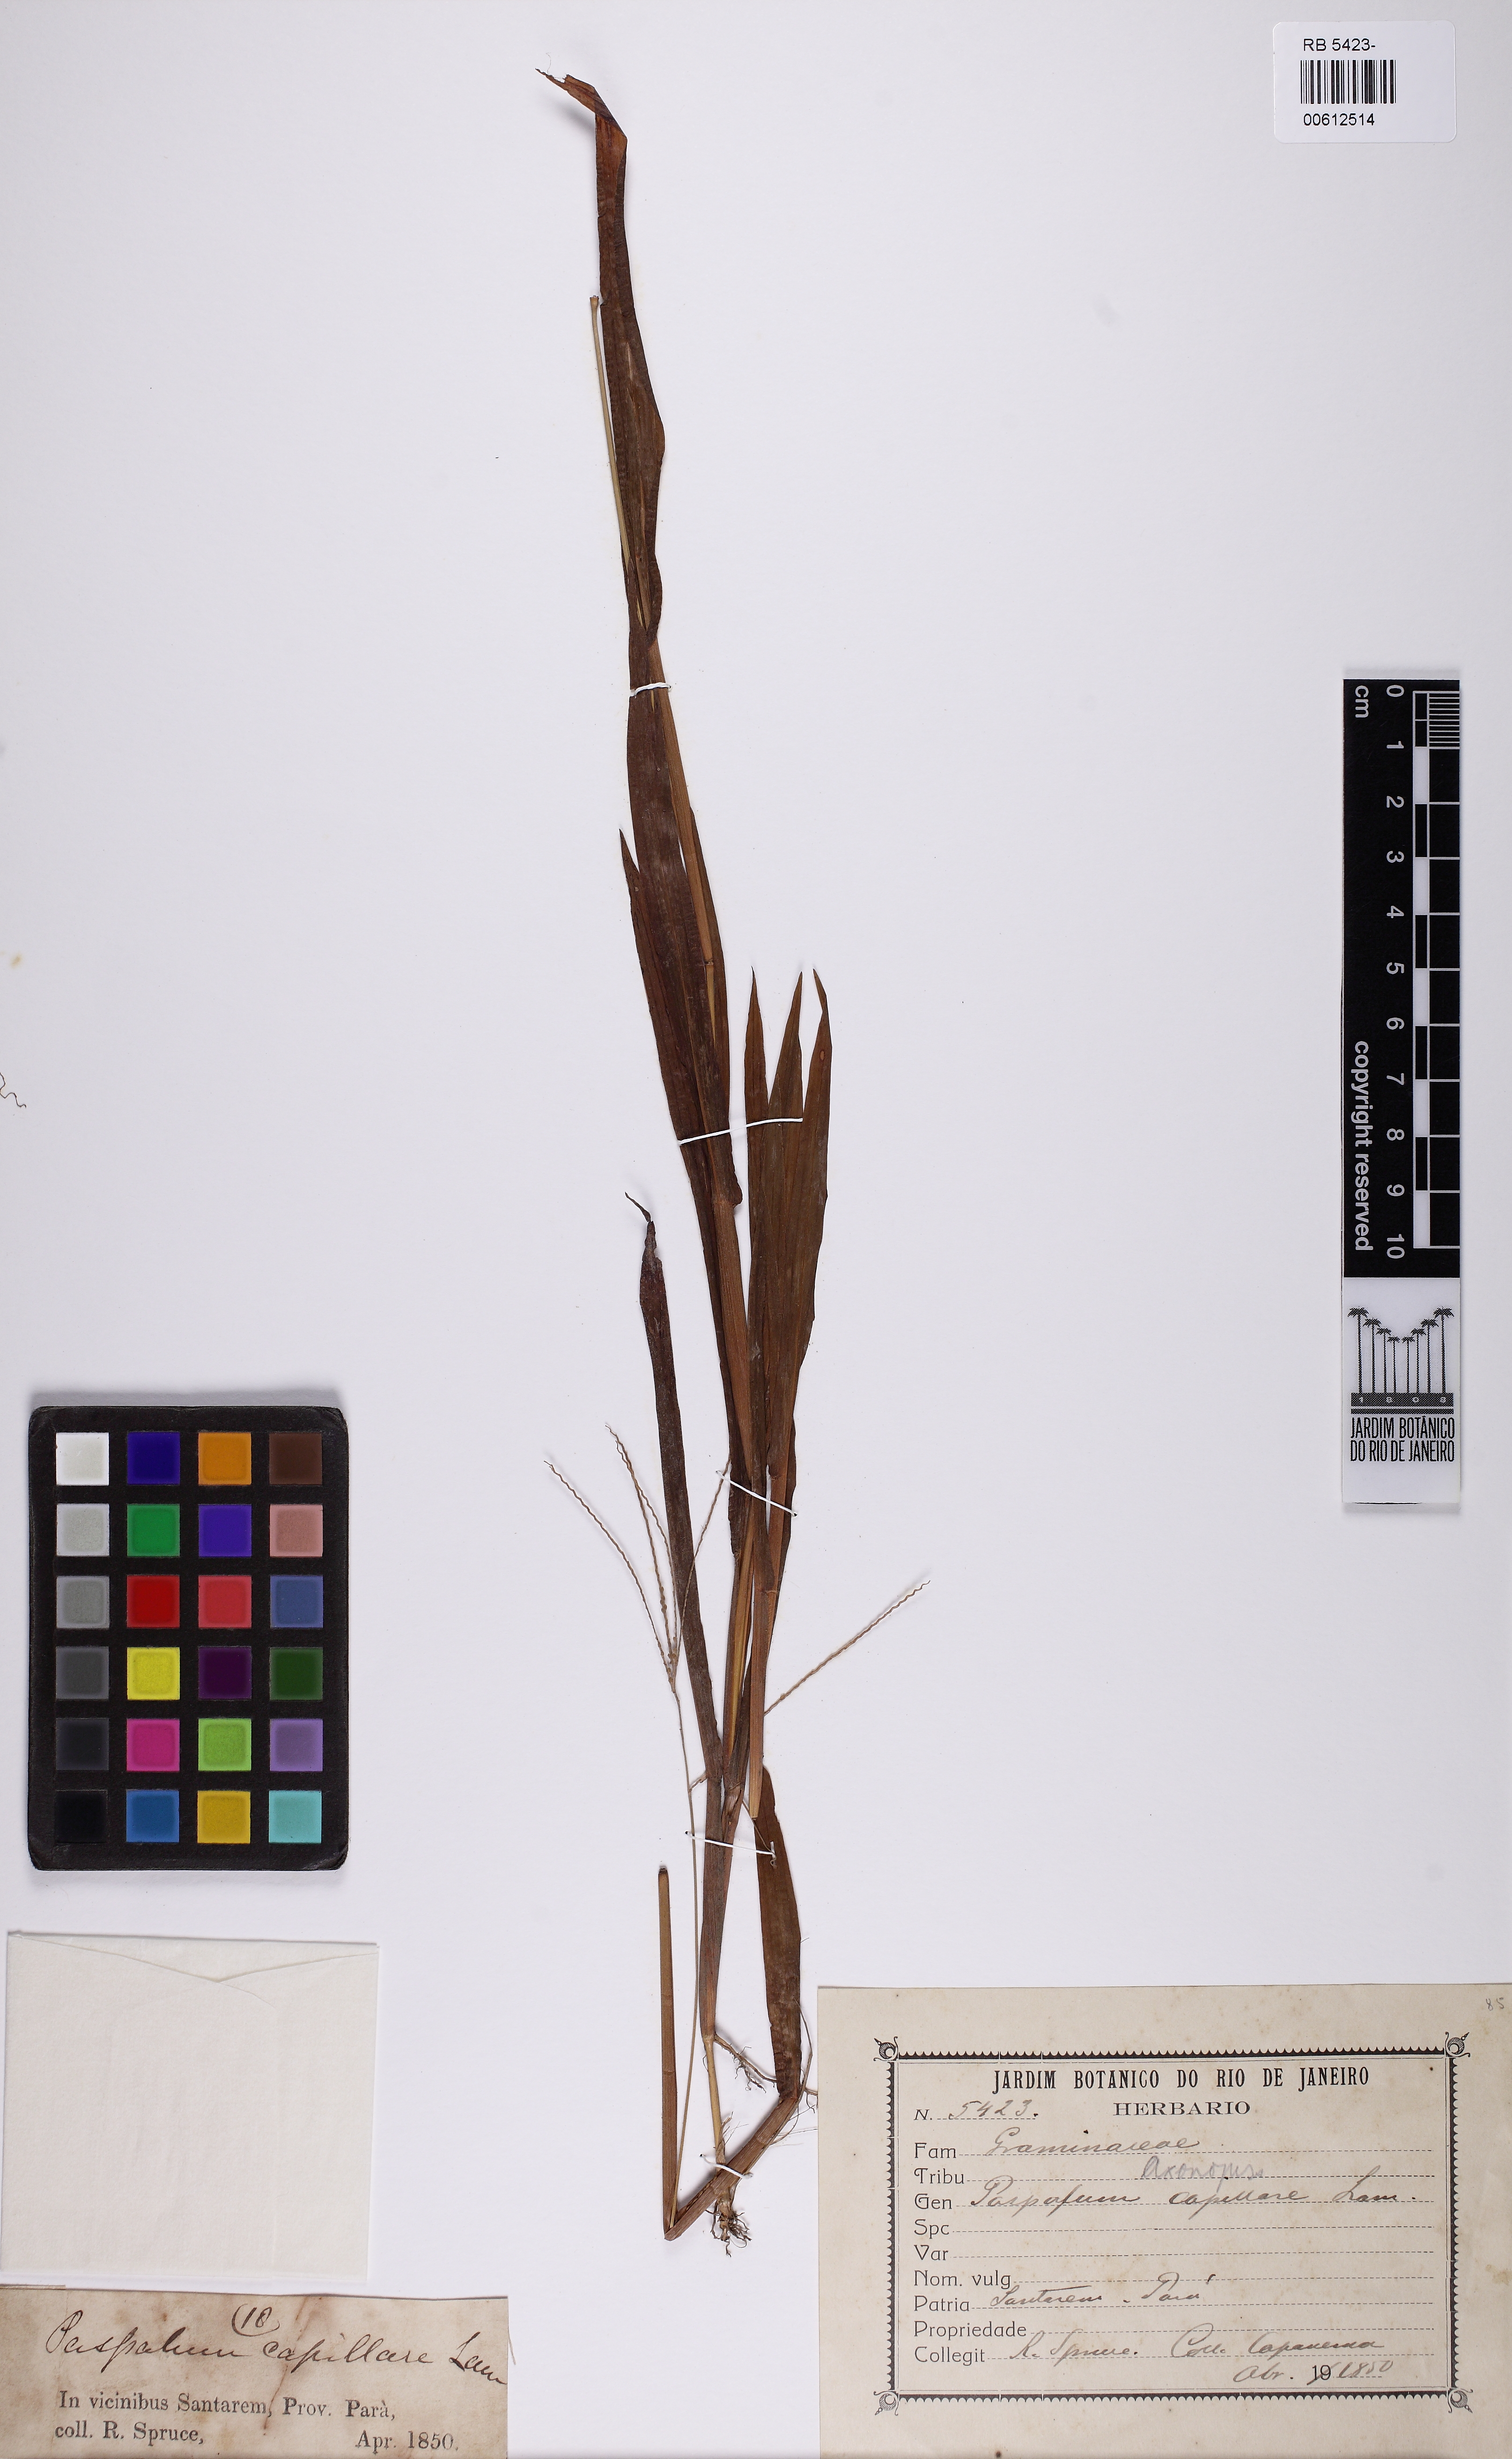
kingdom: Plantae
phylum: Tracheophyta
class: Liliopsida
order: Poales
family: Poaceae
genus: Axonopus
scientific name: Axonopus capillaris
